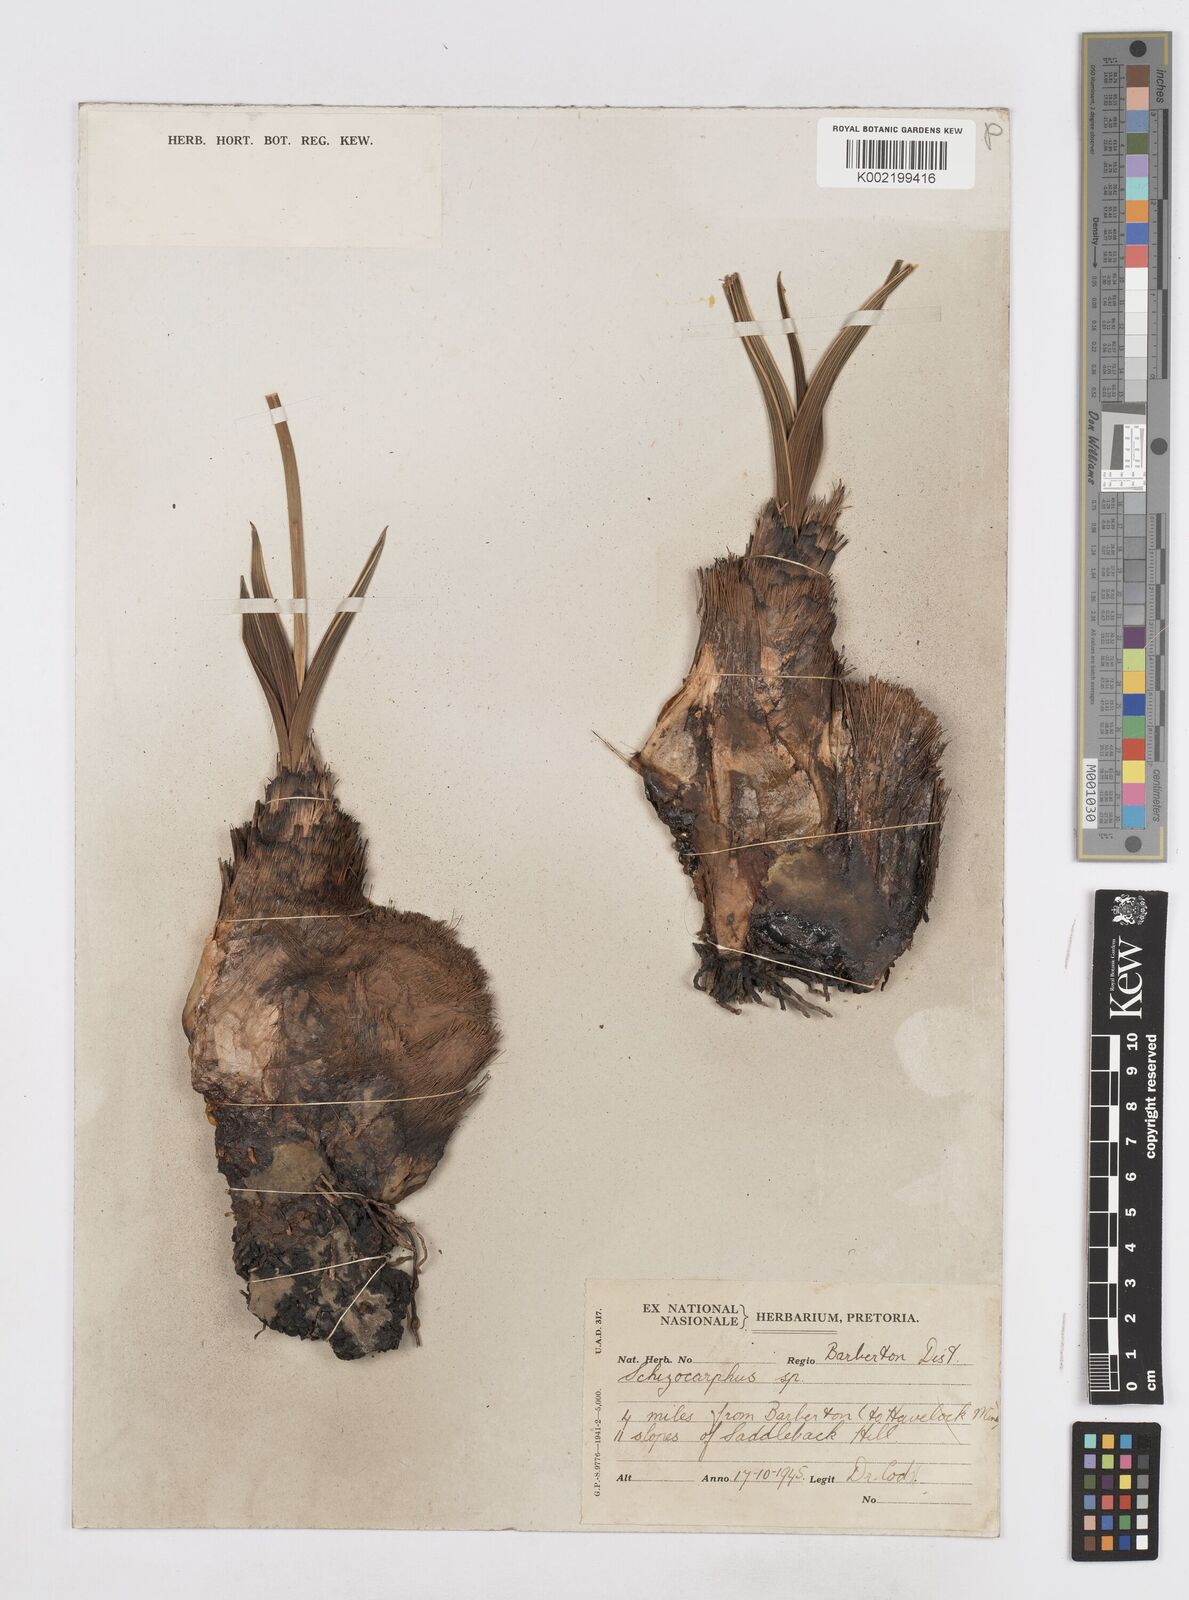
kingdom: Plantae
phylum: Tracheophyta
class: Liliopsida
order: Asparagales
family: Asparagaceae
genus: Schizocarphus
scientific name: Schizocarphus nervosus
